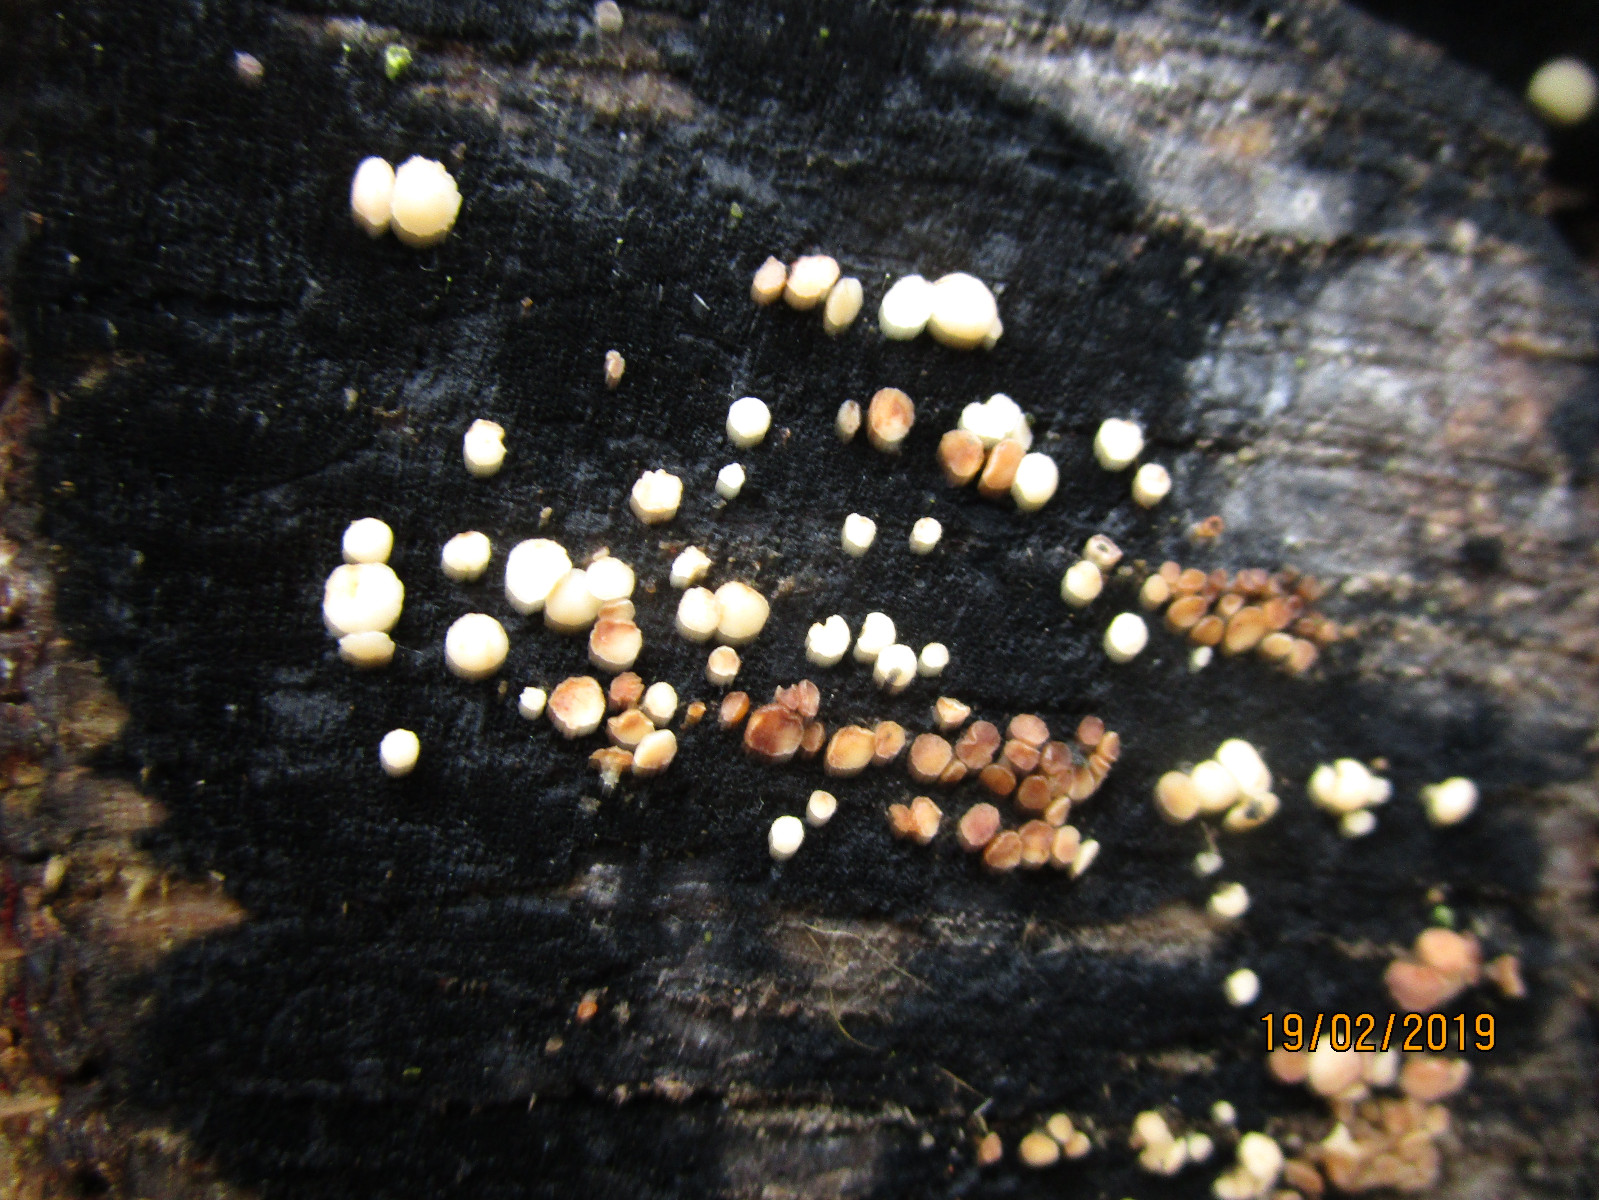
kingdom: Fungi
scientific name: Fungi
